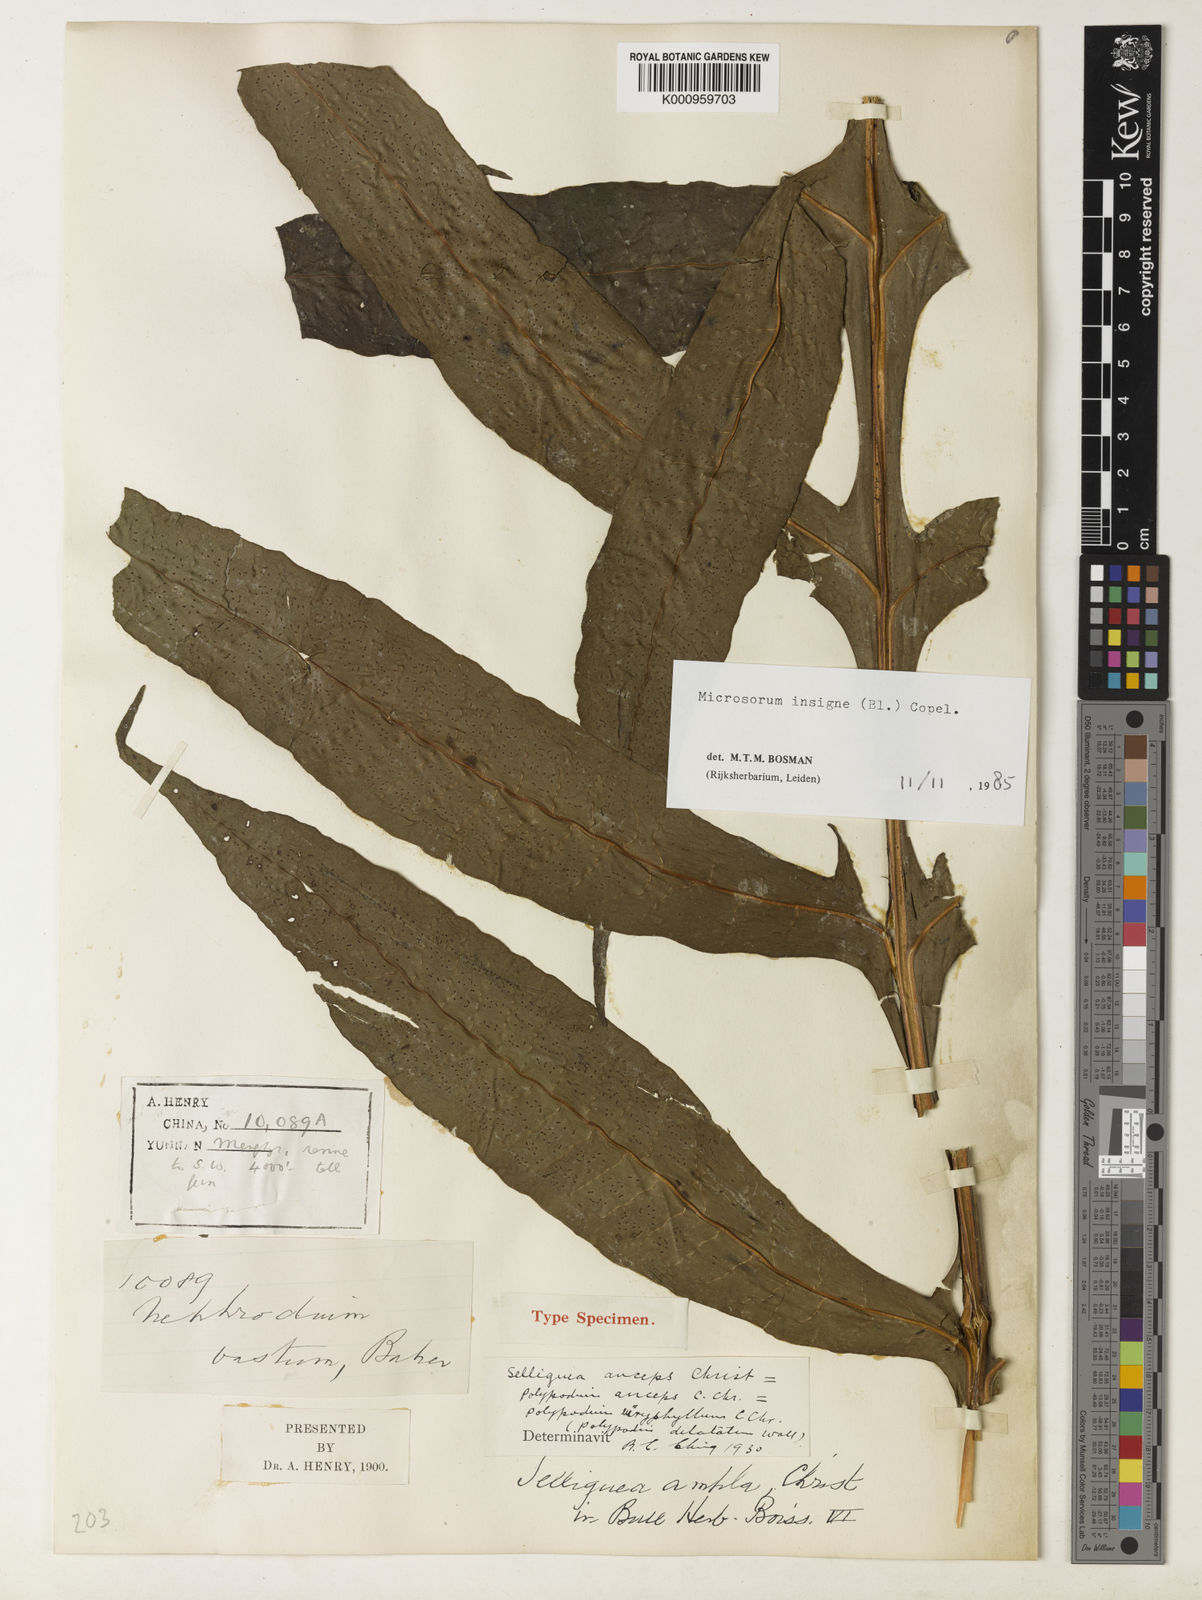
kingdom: Plantae
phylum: Tracheophyta
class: Polypodiopsida
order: Polypodiales
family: Polypodiaceae
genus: Leptochilus
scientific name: Leptochilus insignis
